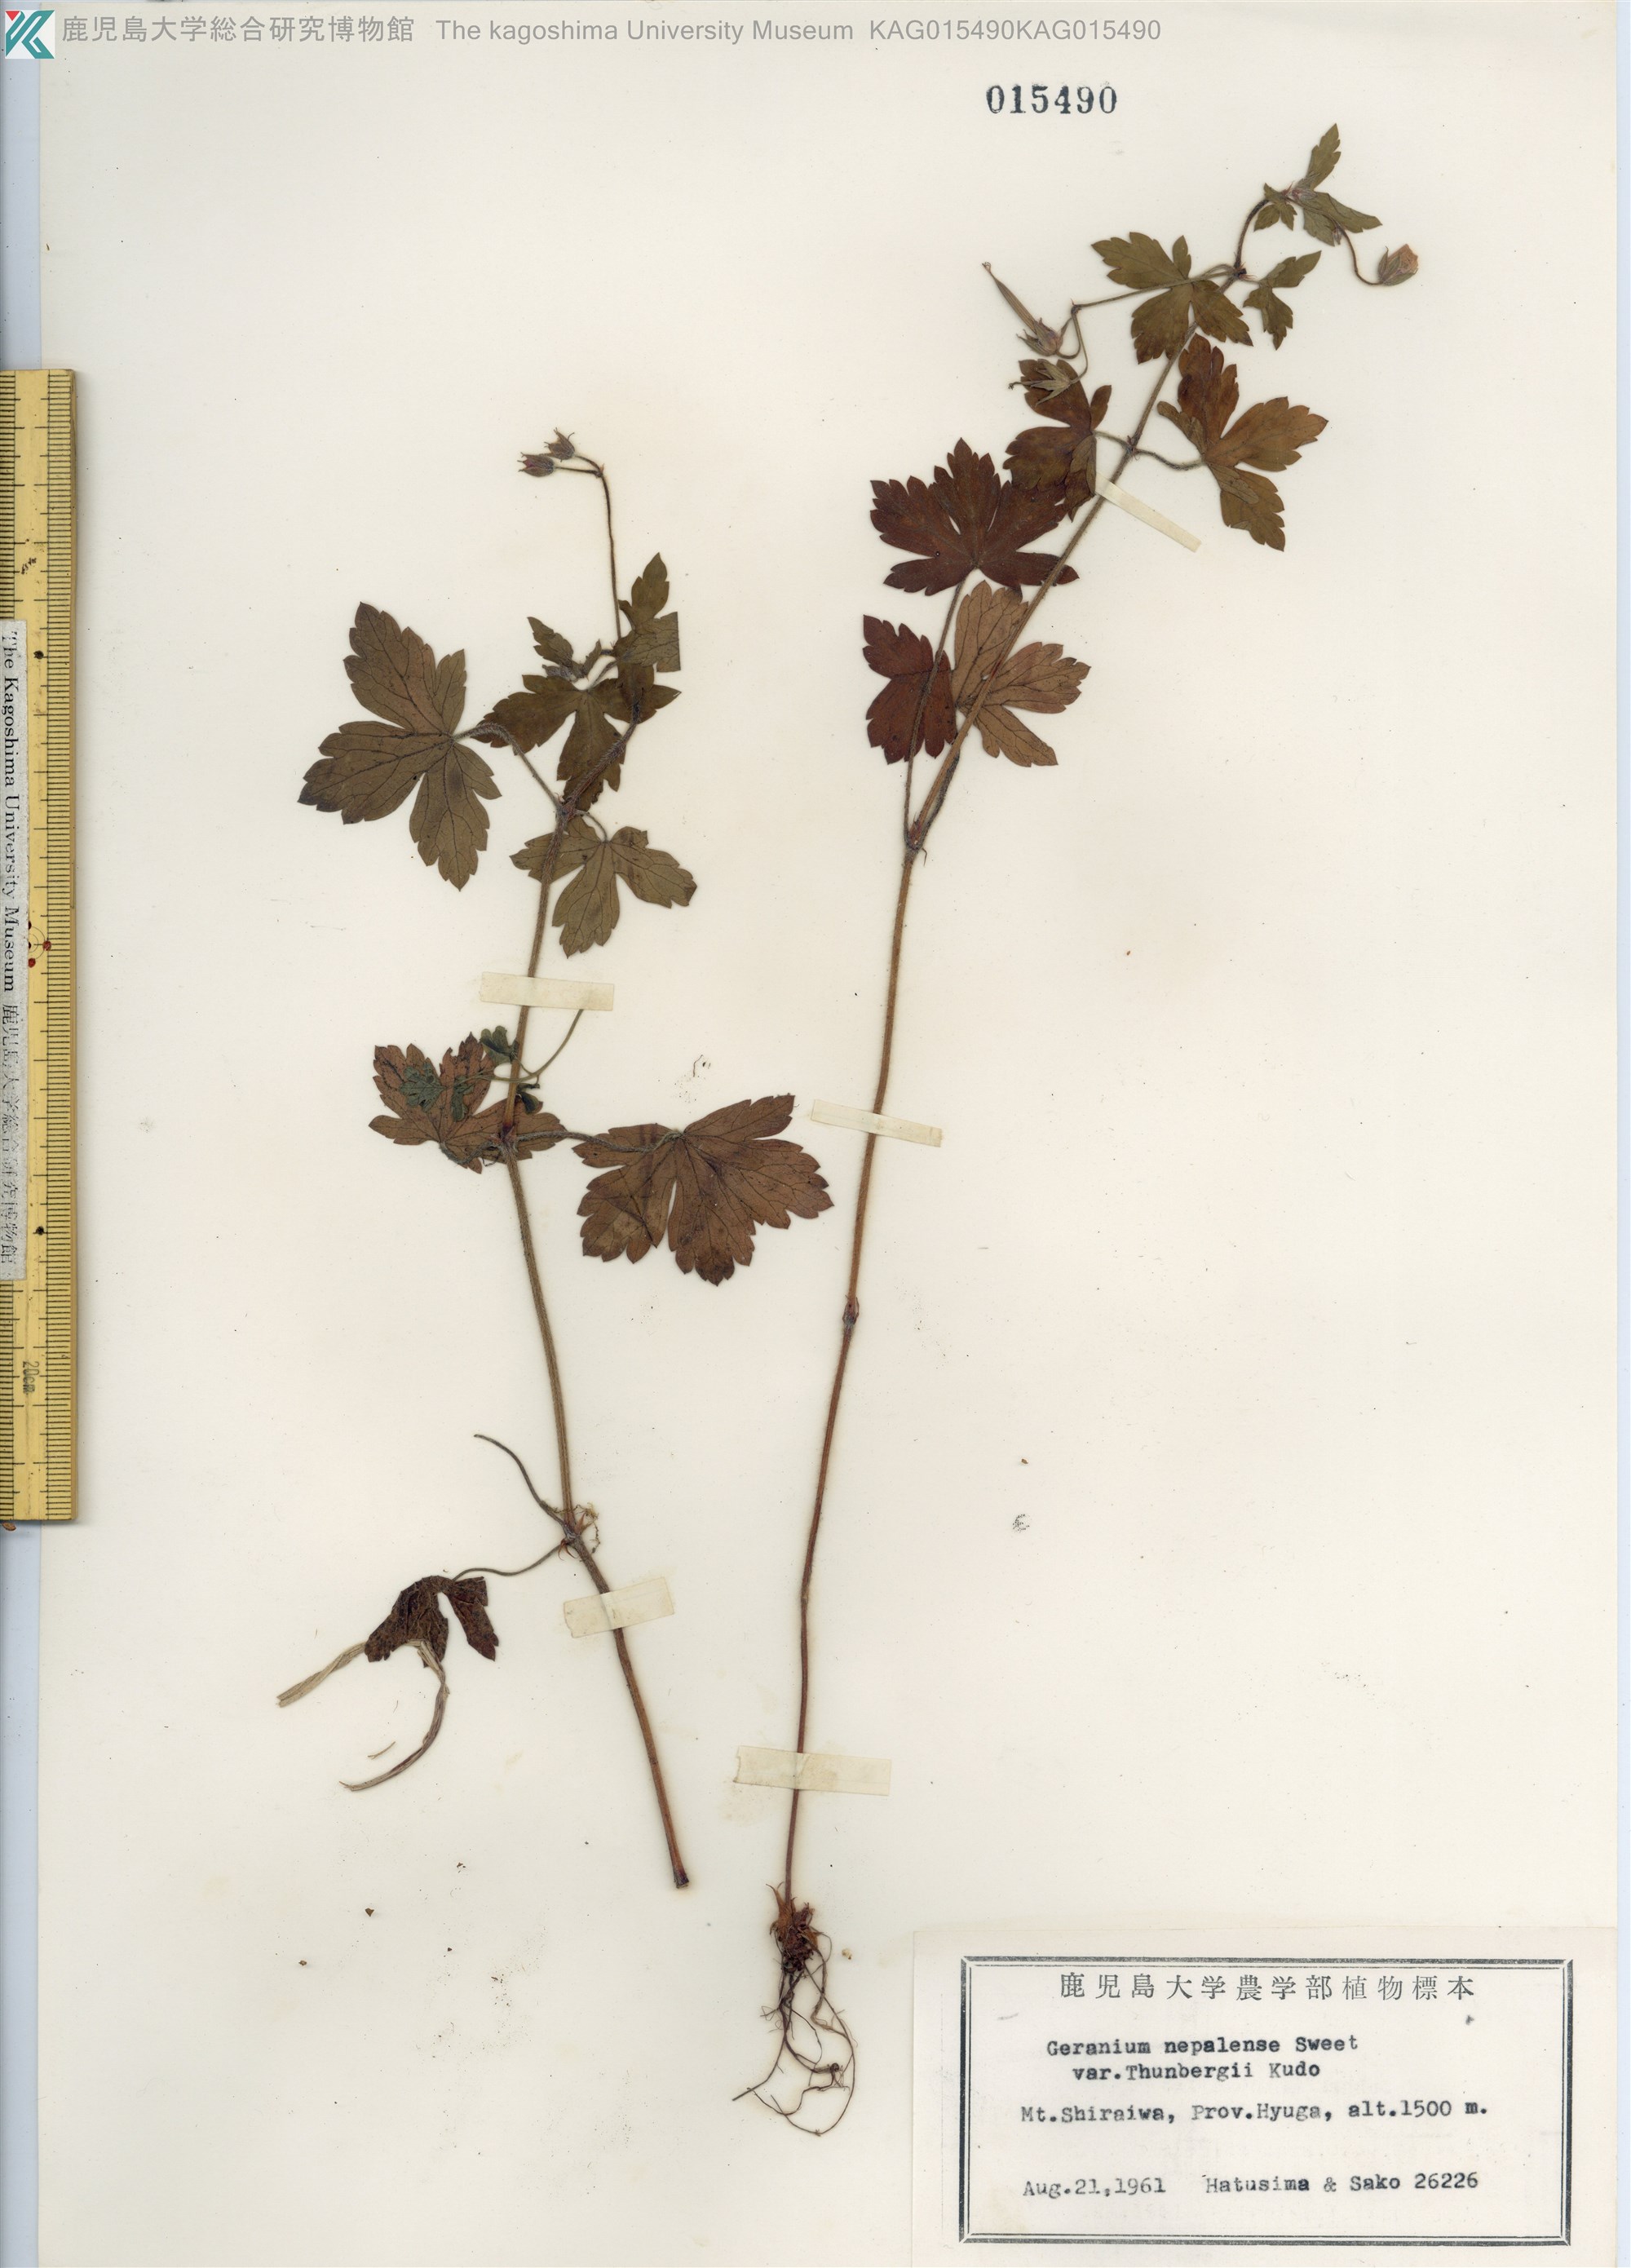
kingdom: Plantae
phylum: Tracheophyta
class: Magnoliopsida
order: Geraniales
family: Geraniaceae
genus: Geranium
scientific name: Geranium thunbergii
